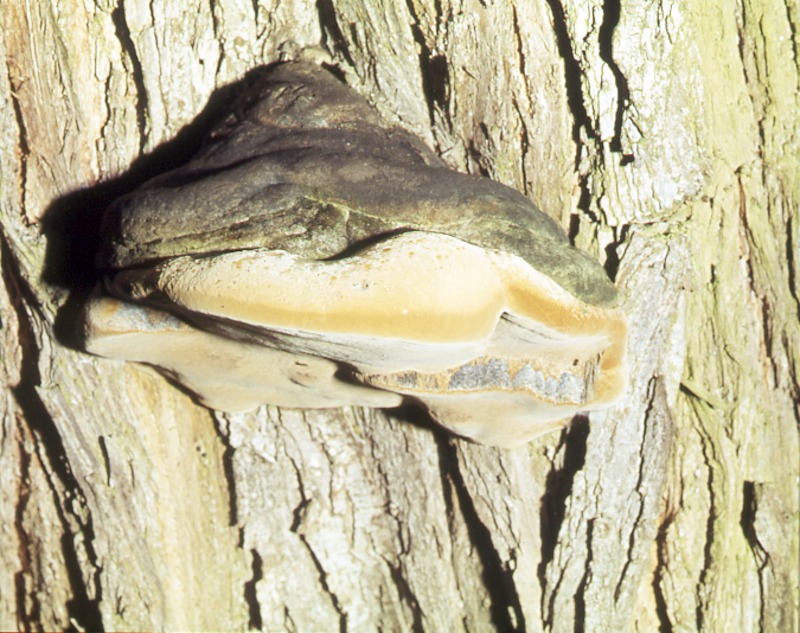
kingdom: Fungi
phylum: Basidiomycota
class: Agaricomycetes
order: Hymenochaetales
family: Hymenochaetaceae
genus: Phellinus
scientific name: Phellinus igniarius
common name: Willow bracket
